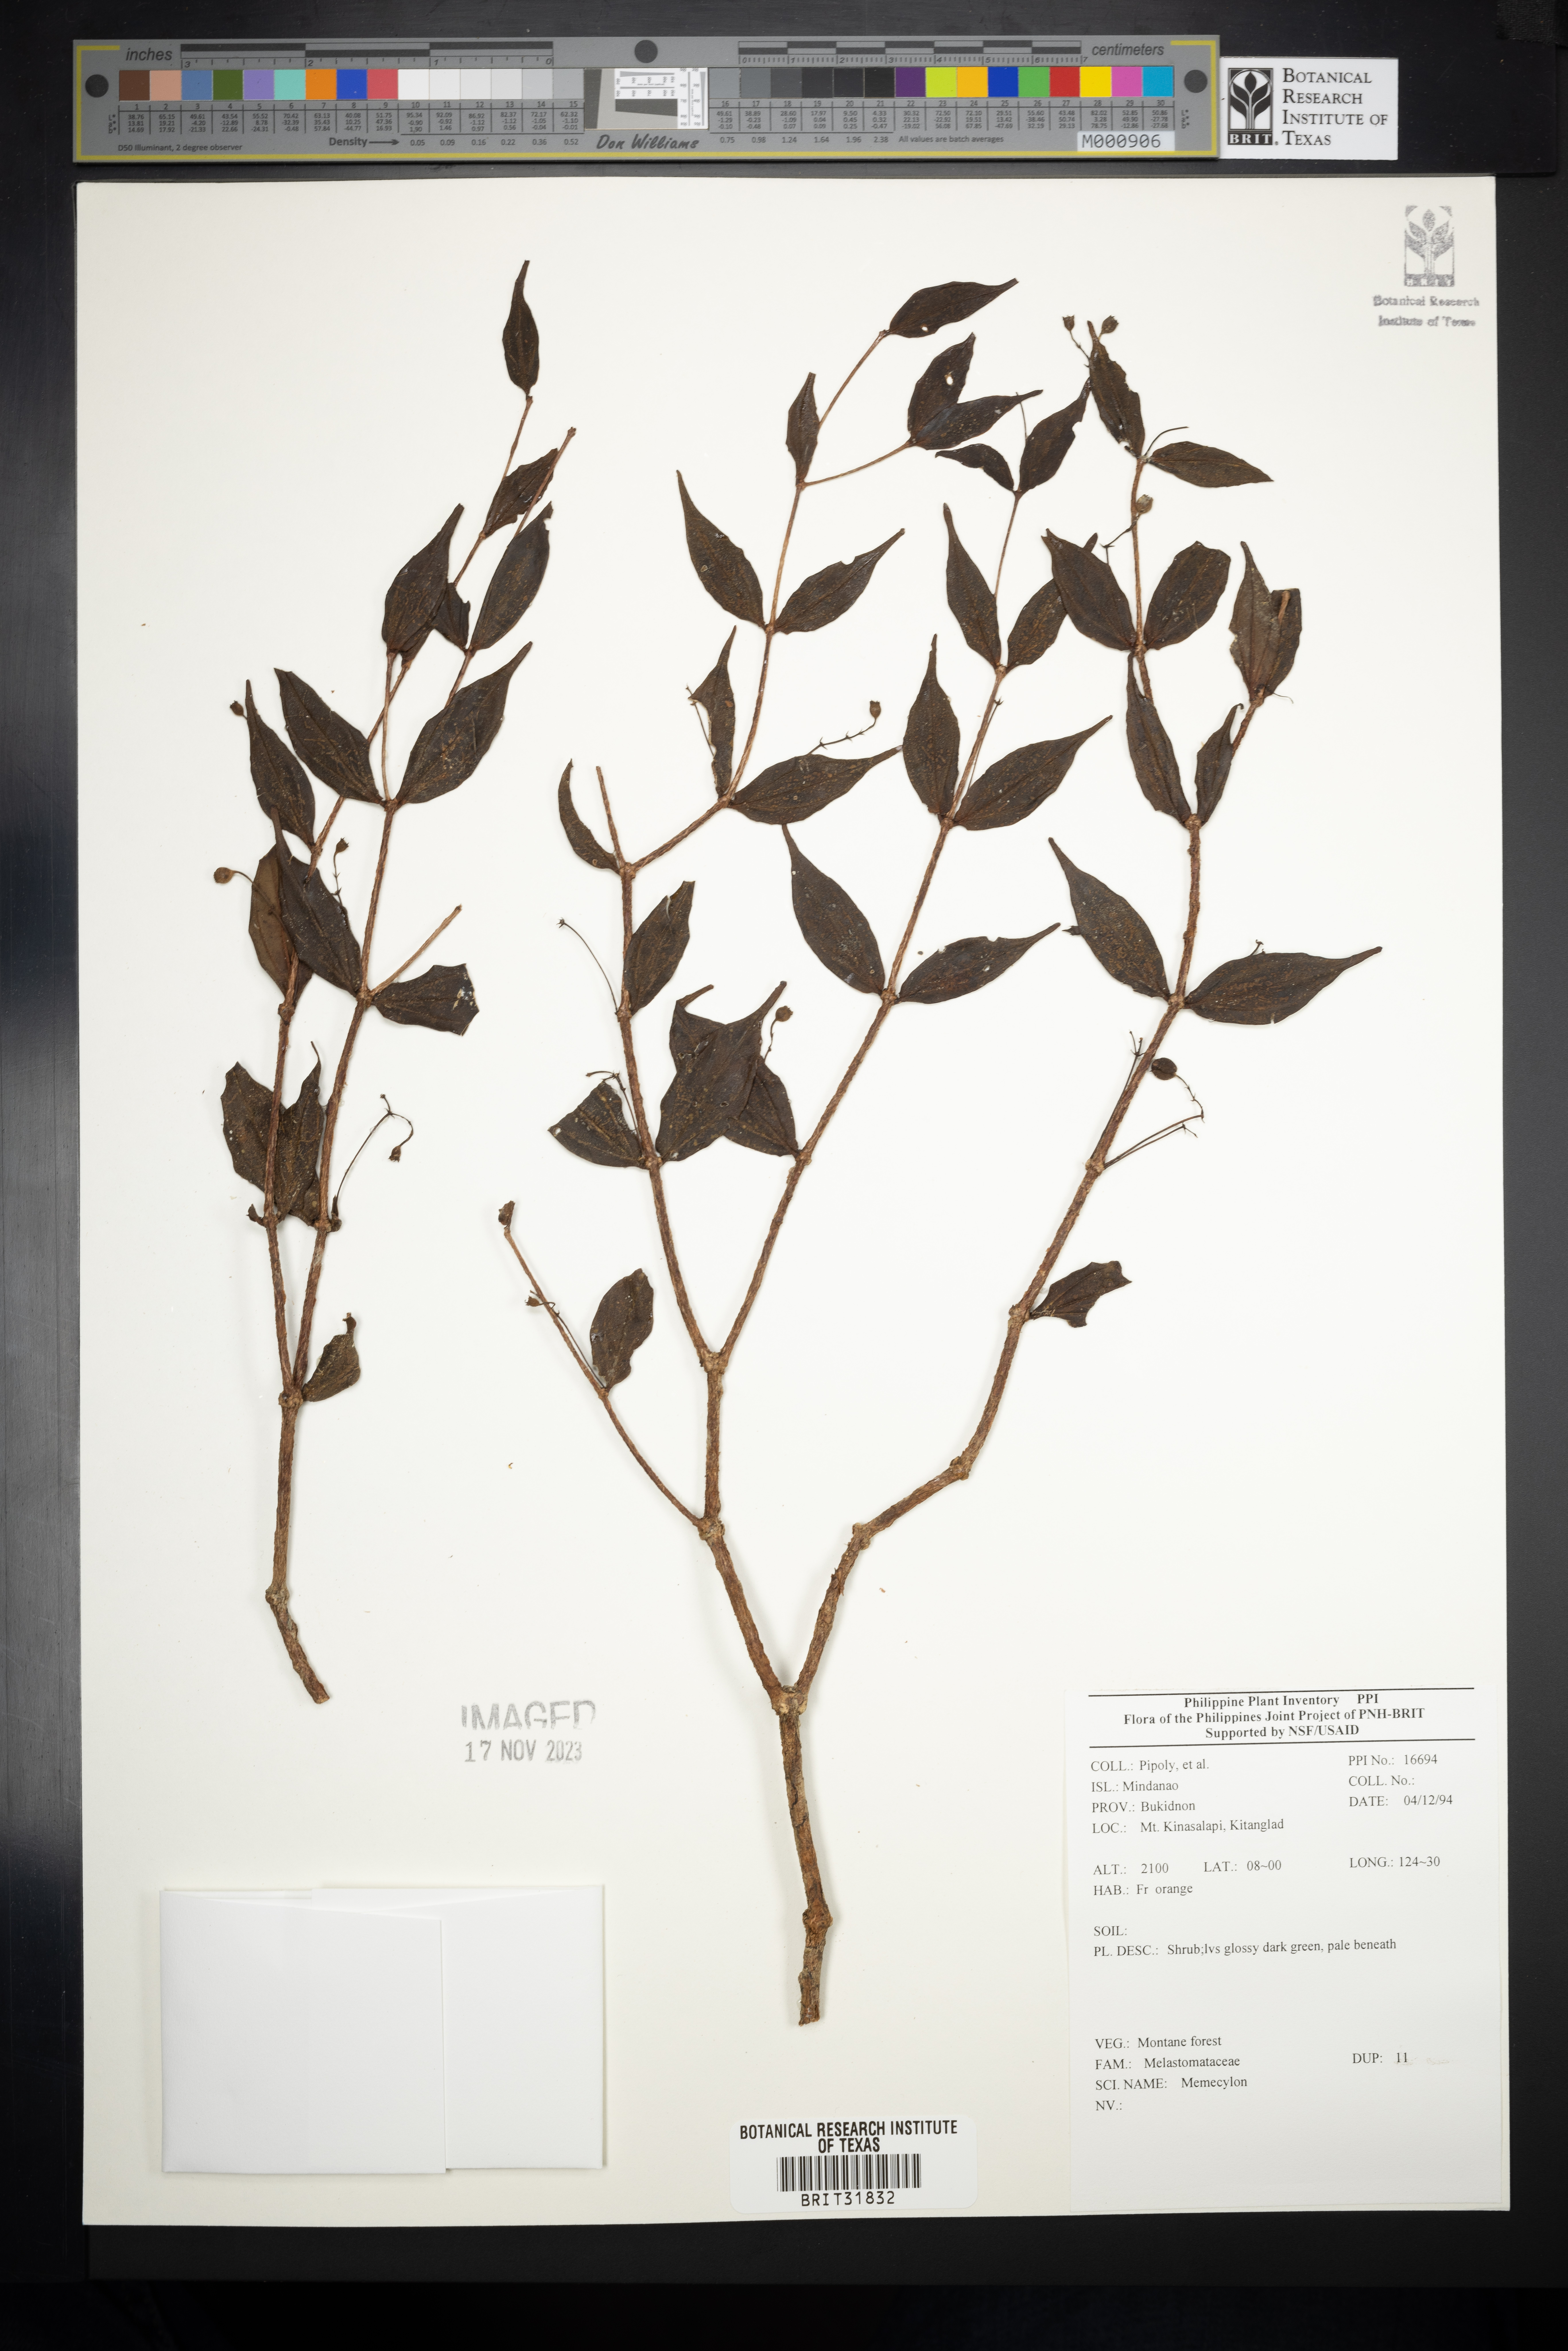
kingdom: Plantae
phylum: Tracheophyta
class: Magnoliopsida
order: Myrtales
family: Melastomataceae
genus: Memecylon
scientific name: Memecylon
